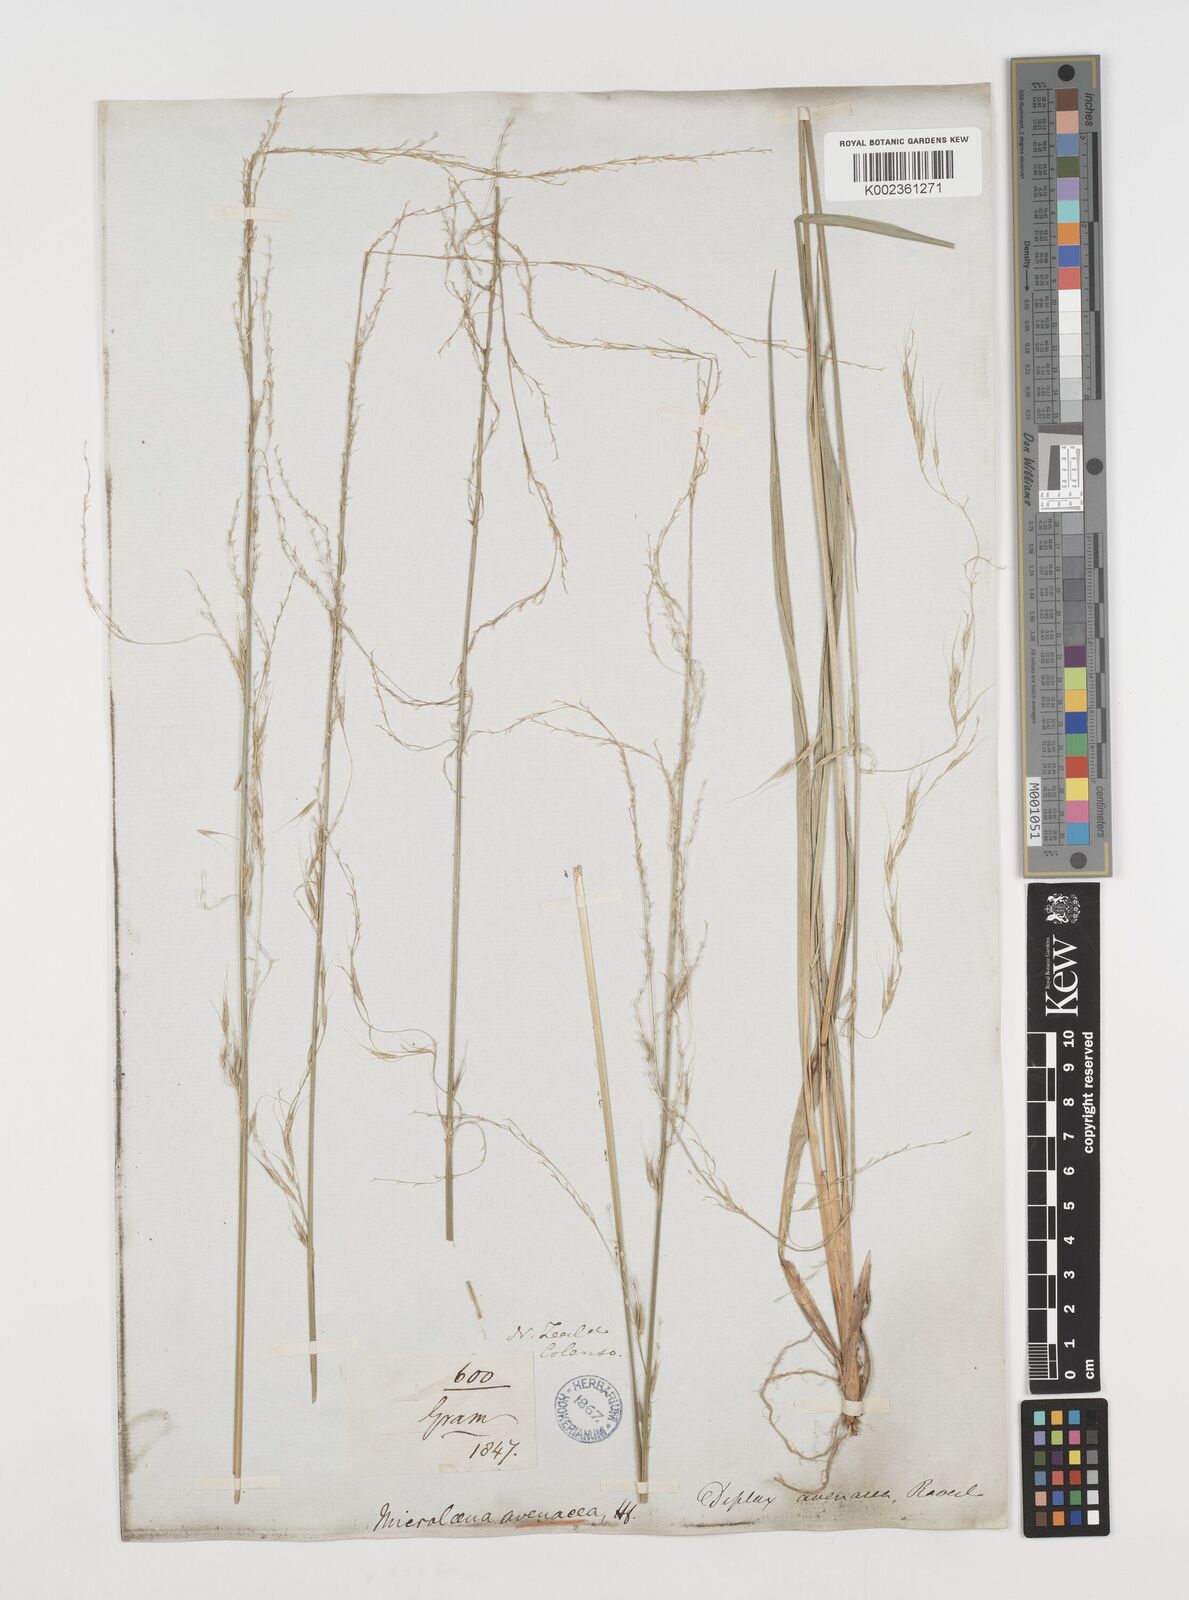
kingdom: Plantae
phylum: Tracheophyta
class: Liliopsida
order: Poales
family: Poaceae
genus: Ehrharta
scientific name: Ehrharta diplax
